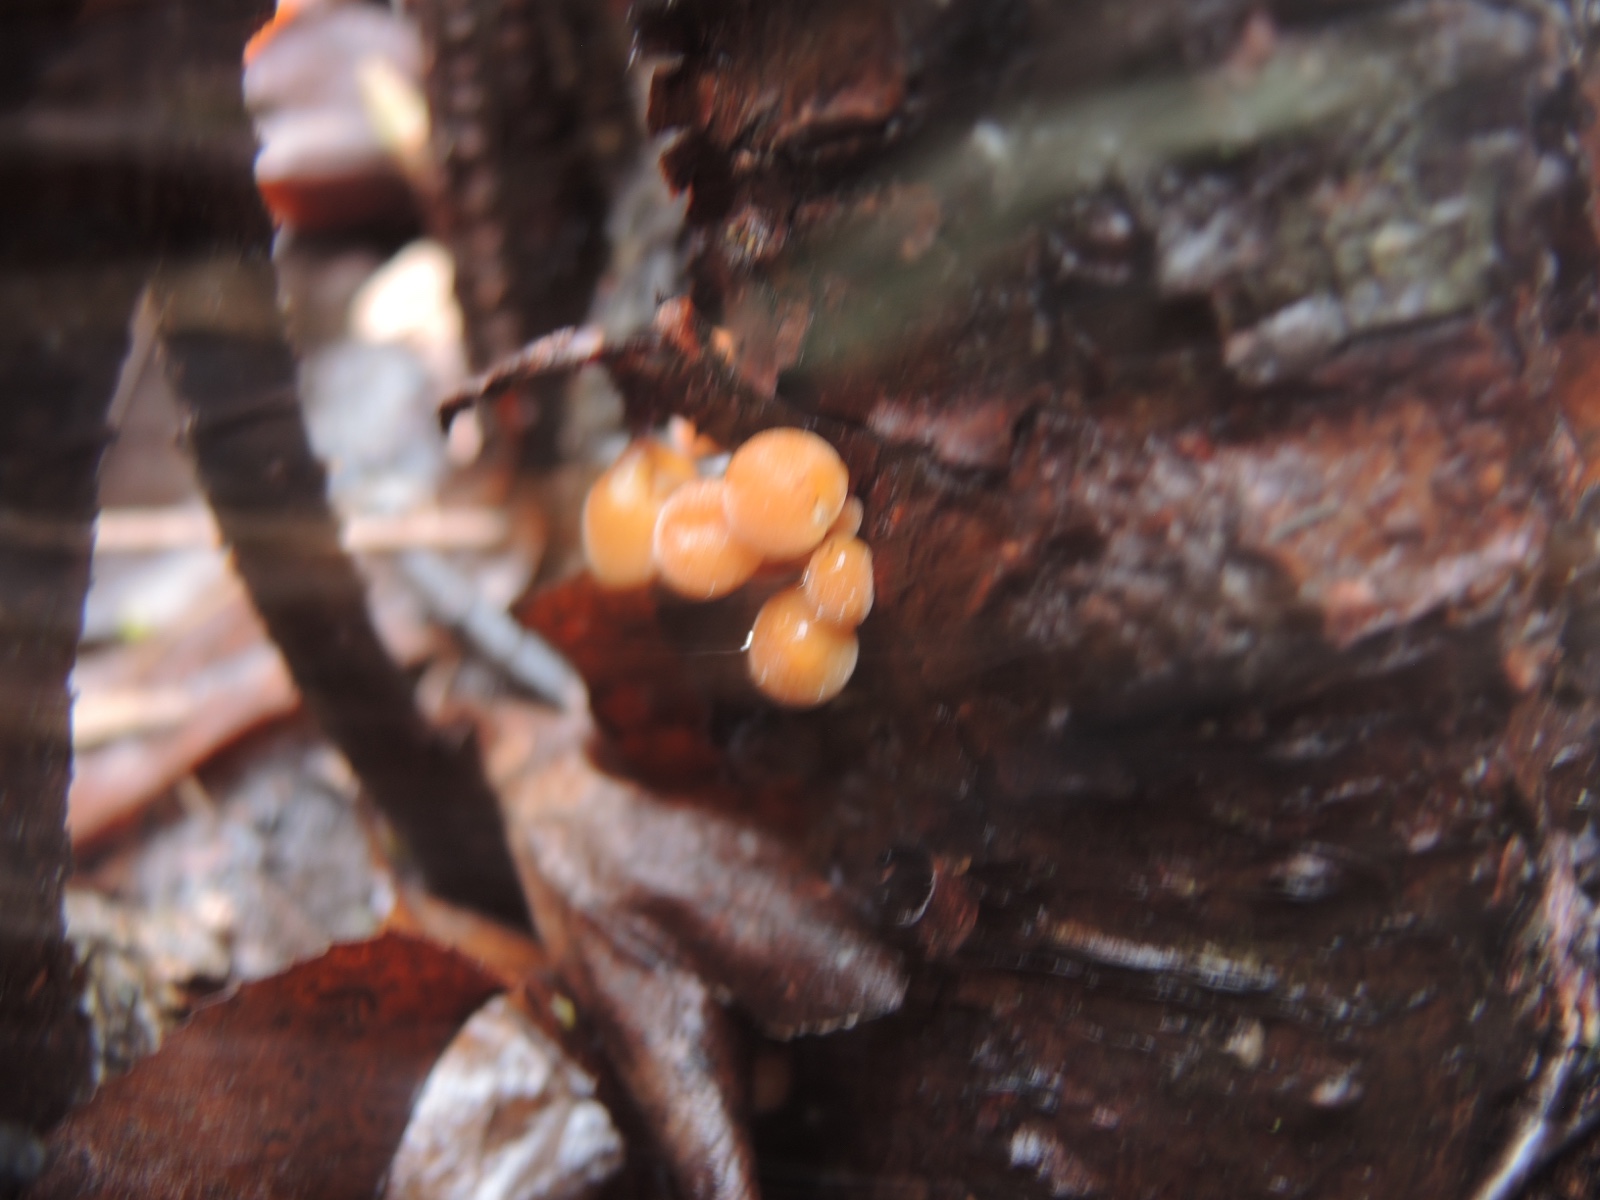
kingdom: Fungi
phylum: Basidiomycota
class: Agaricomycetes
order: Agaricales
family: Physalacriaceae
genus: Flammulina
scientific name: Flammulina velutipes
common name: gul fløjlsfod
